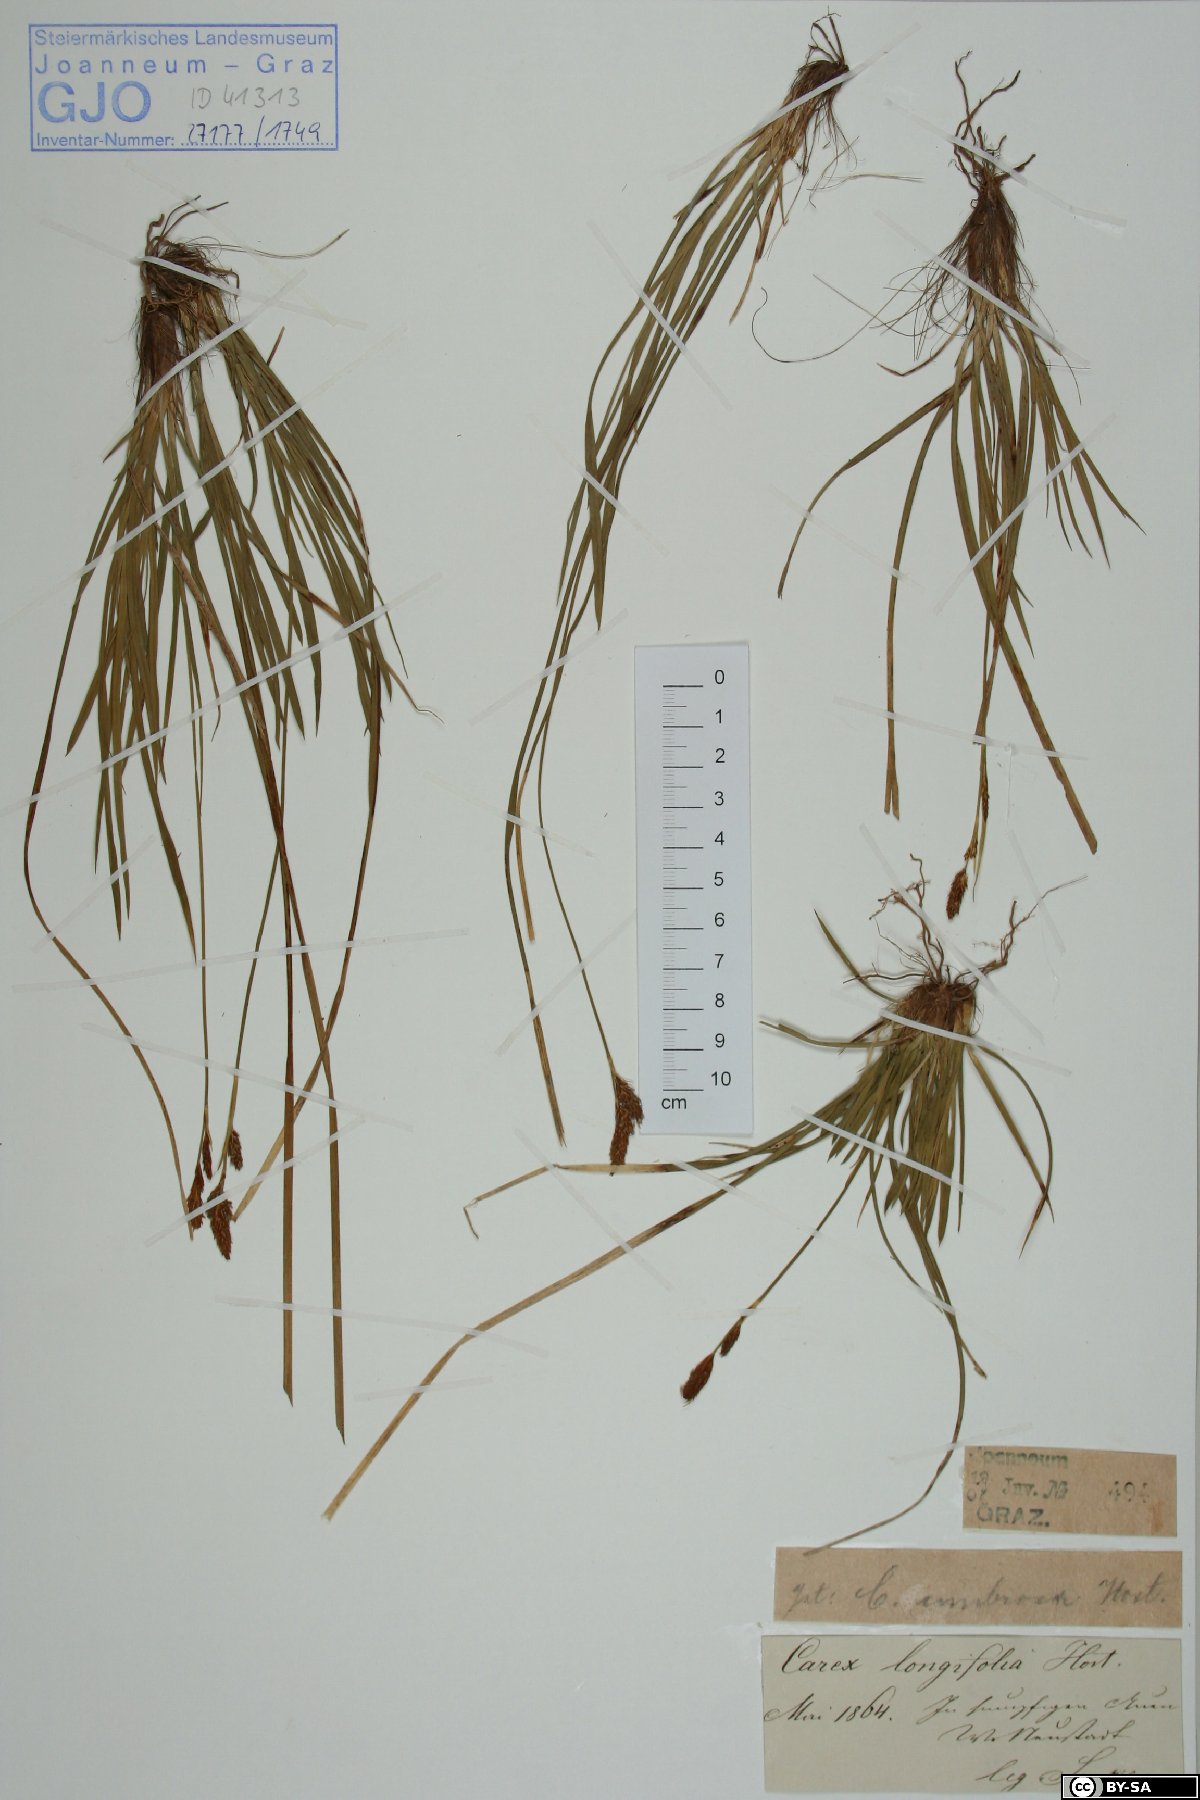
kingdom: Plantae
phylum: Tracheophyta
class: Liliopsida
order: Poales
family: Cyperaceae
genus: Carex
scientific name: Carex umbrosa
